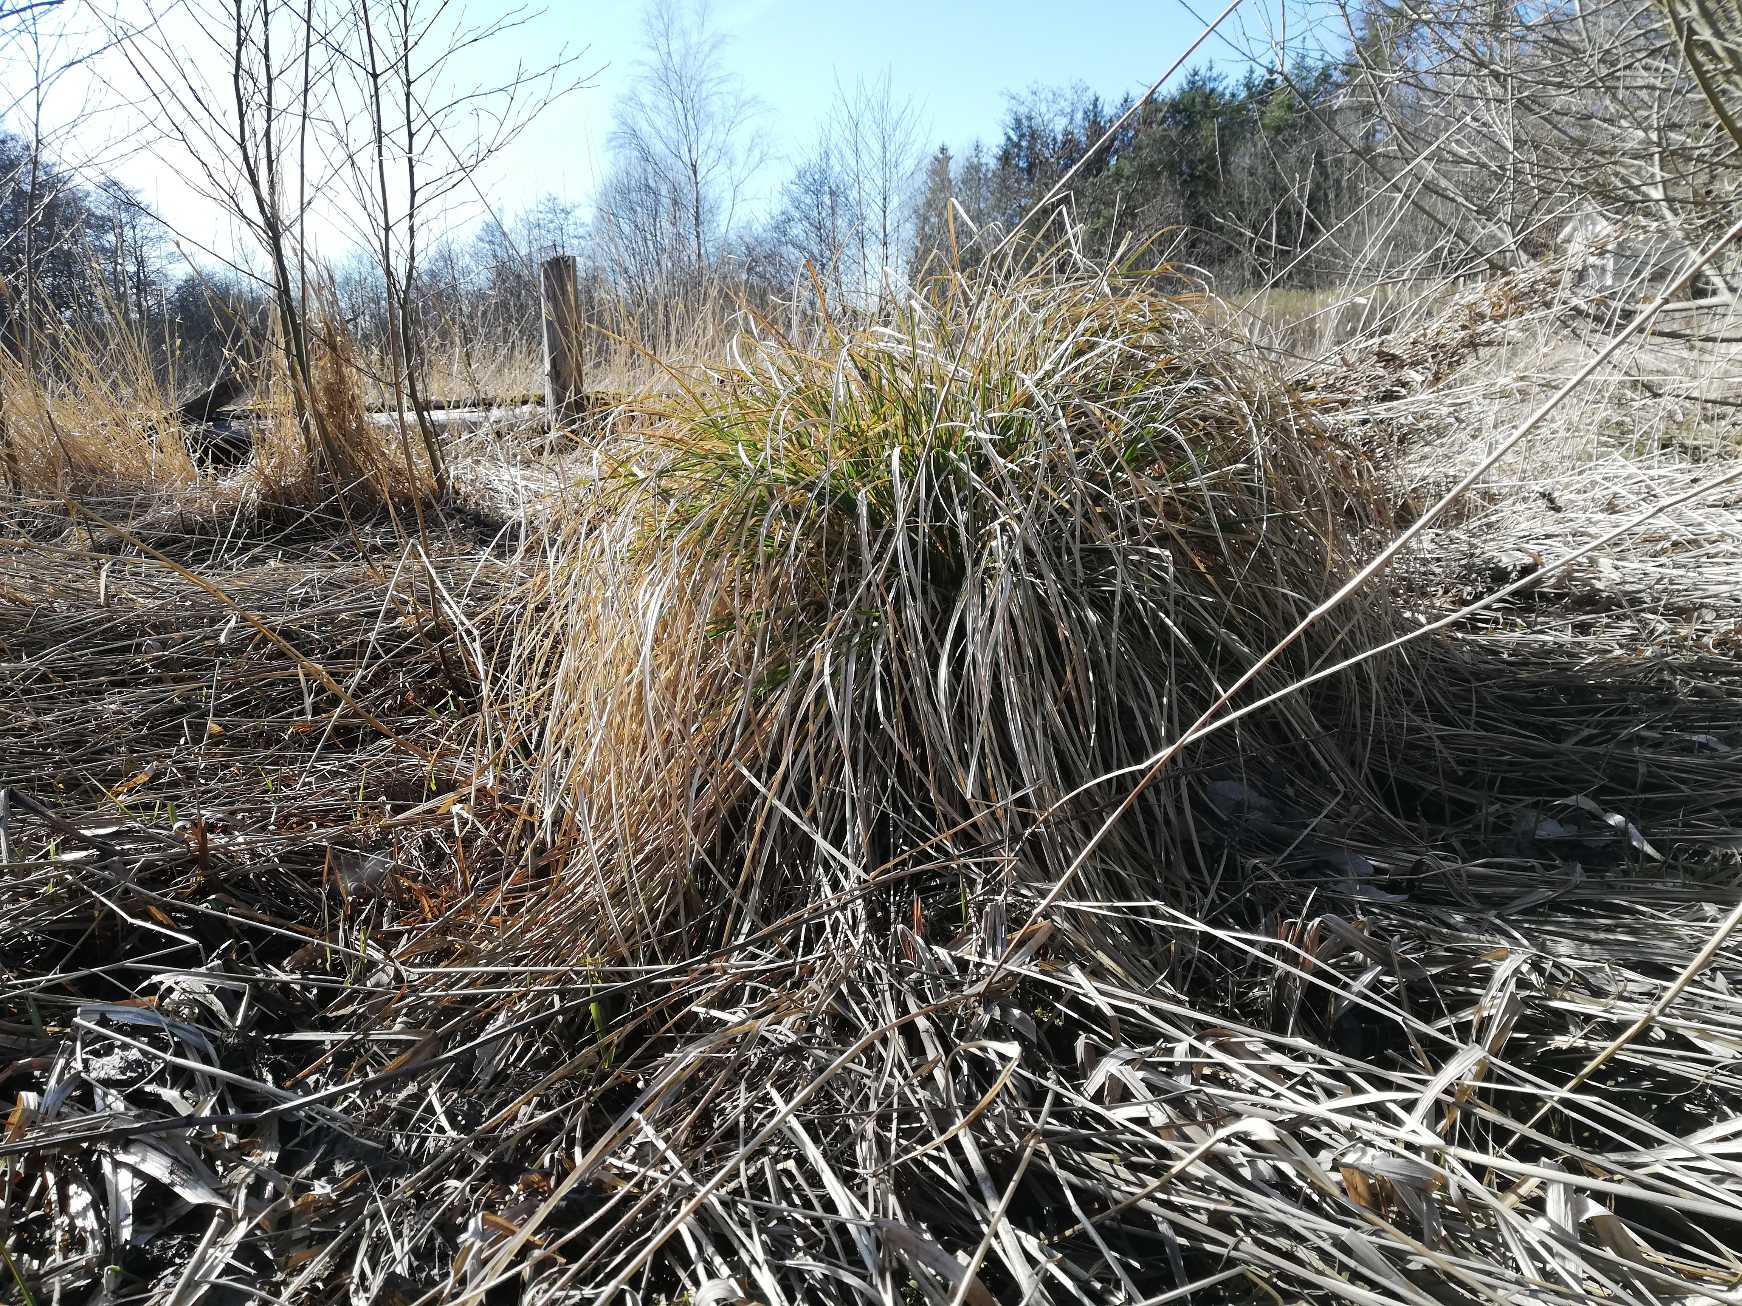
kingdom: Plantae
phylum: Tracheophyta
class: Liliopsida
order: Poales
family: Cyperaceae
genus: Carex
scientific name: Carex paniculata
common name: Top-star
